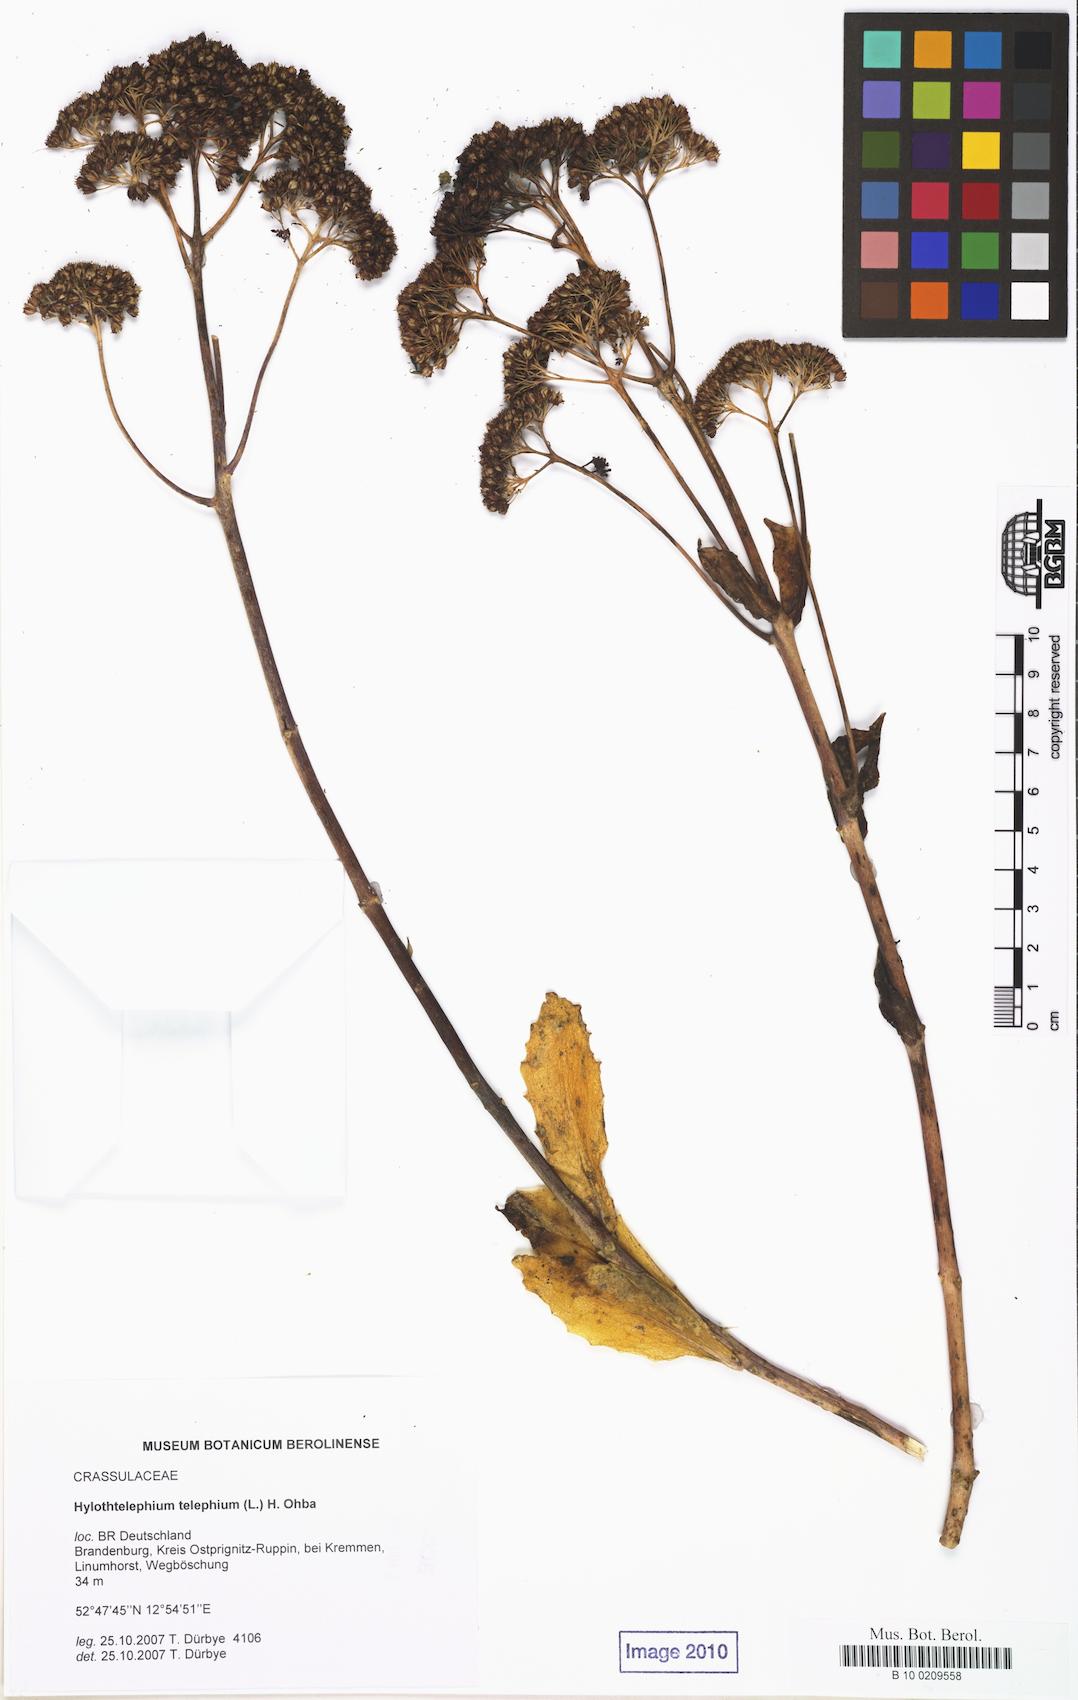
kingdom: Plantae
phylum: Tracheophyta
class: Magnoliopsida
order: Saxifragales
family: Crassulaceae
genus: Hylotelephium
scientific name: Hylotelephium telephium
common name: Live-forever
